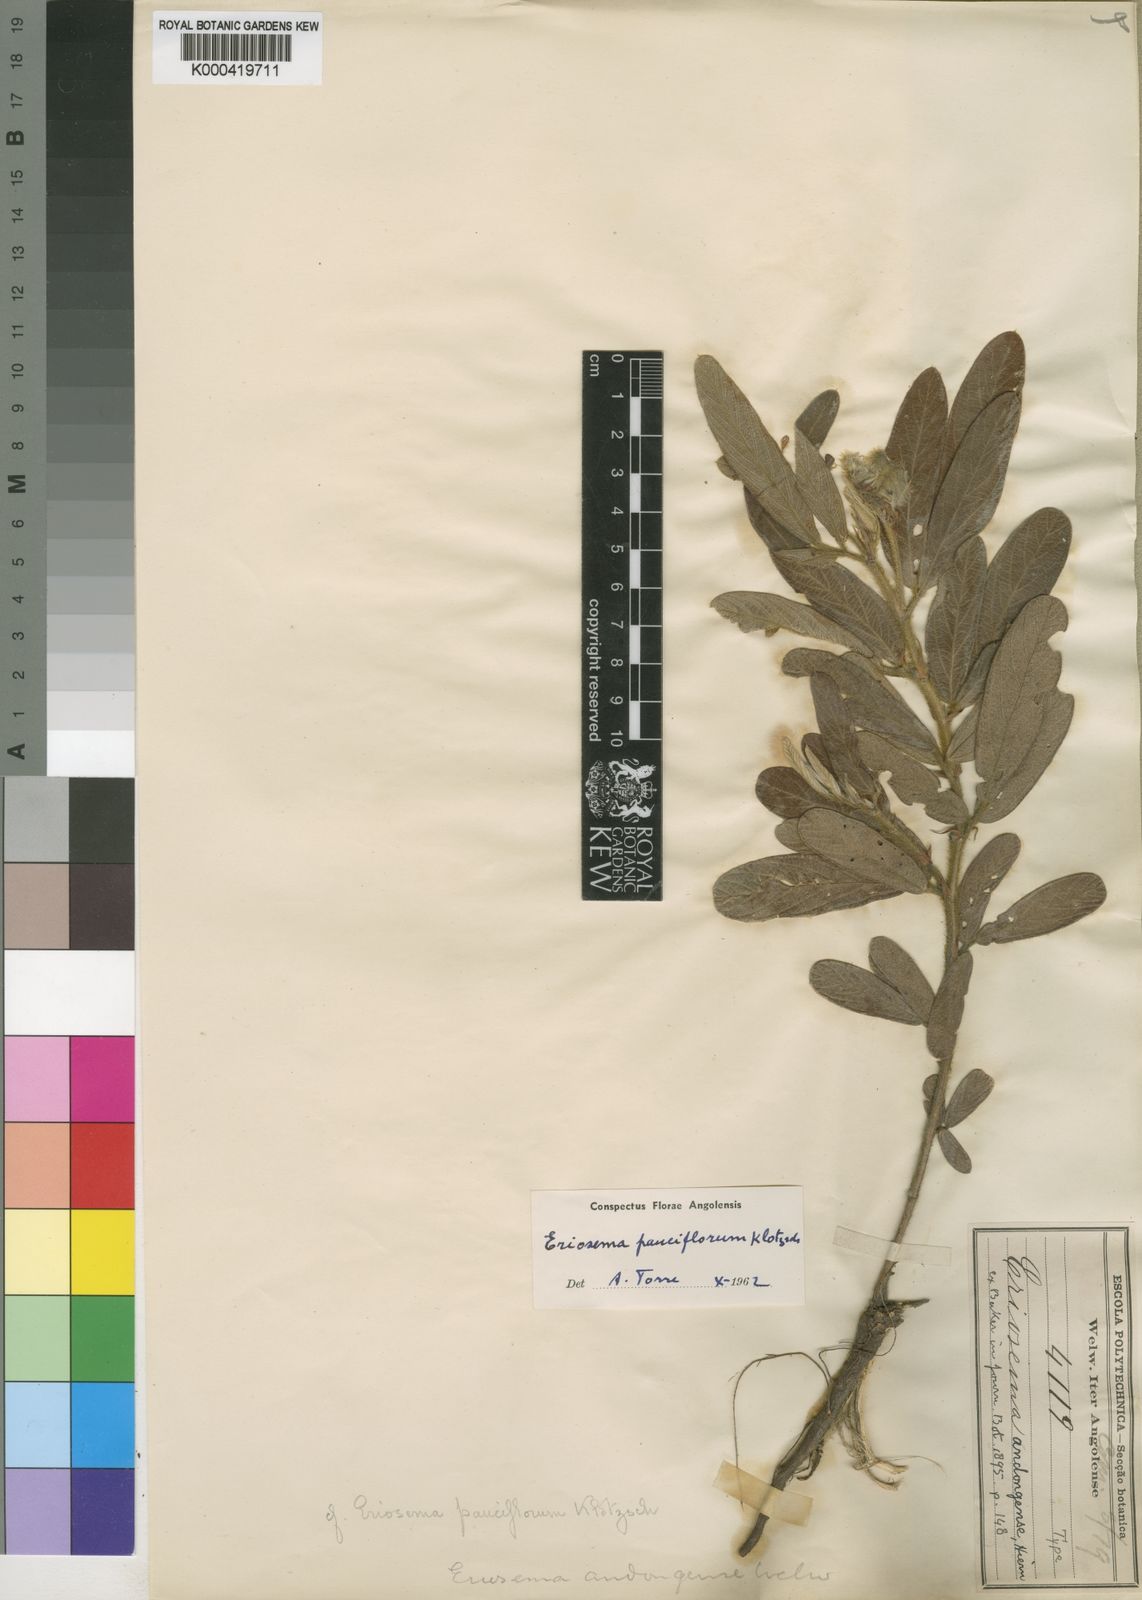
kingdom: Plantae
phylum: Tracheophyta
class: Magnoliopsida
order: Fabales
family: Fabaceae
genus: Eriosema
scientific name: Eriosema pauciflorum
